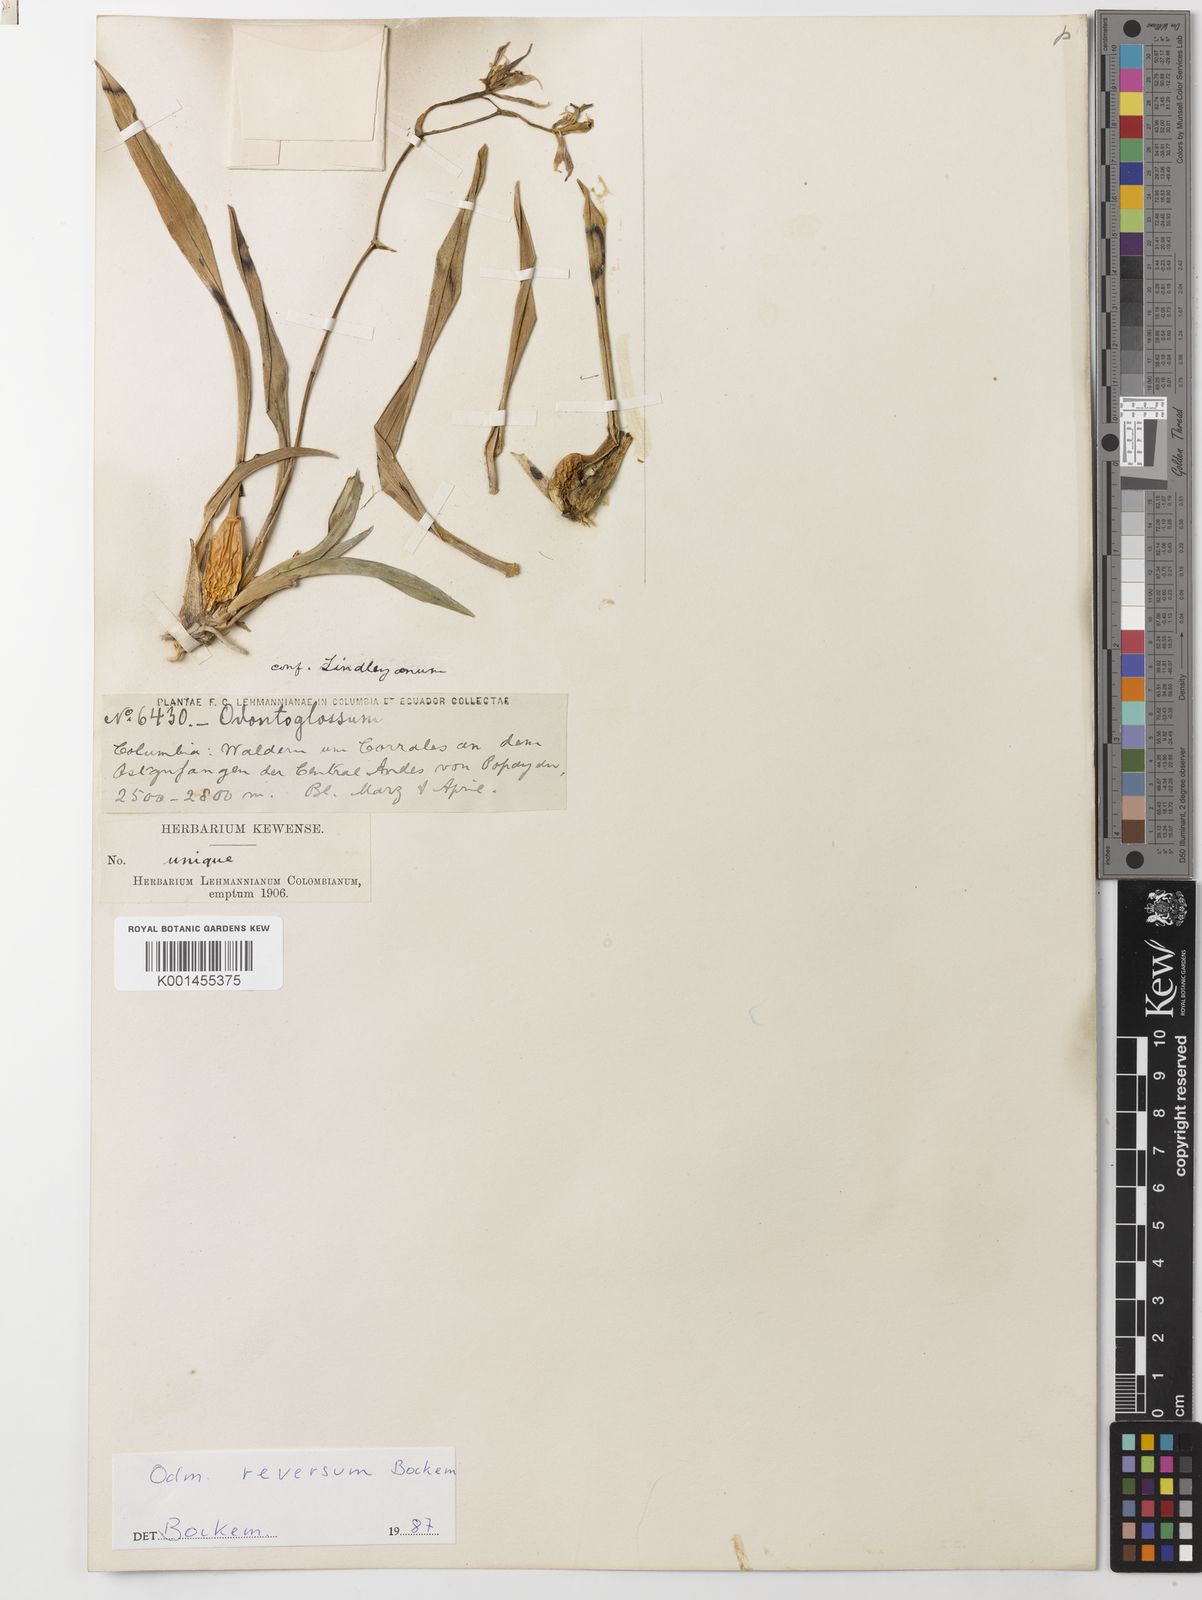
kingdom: Plantae
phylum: Tracheophyta
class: Liliopsida
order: Asparagales
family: Orchidaceae
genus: Oncidium
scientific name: Oncidium lindleyoides
